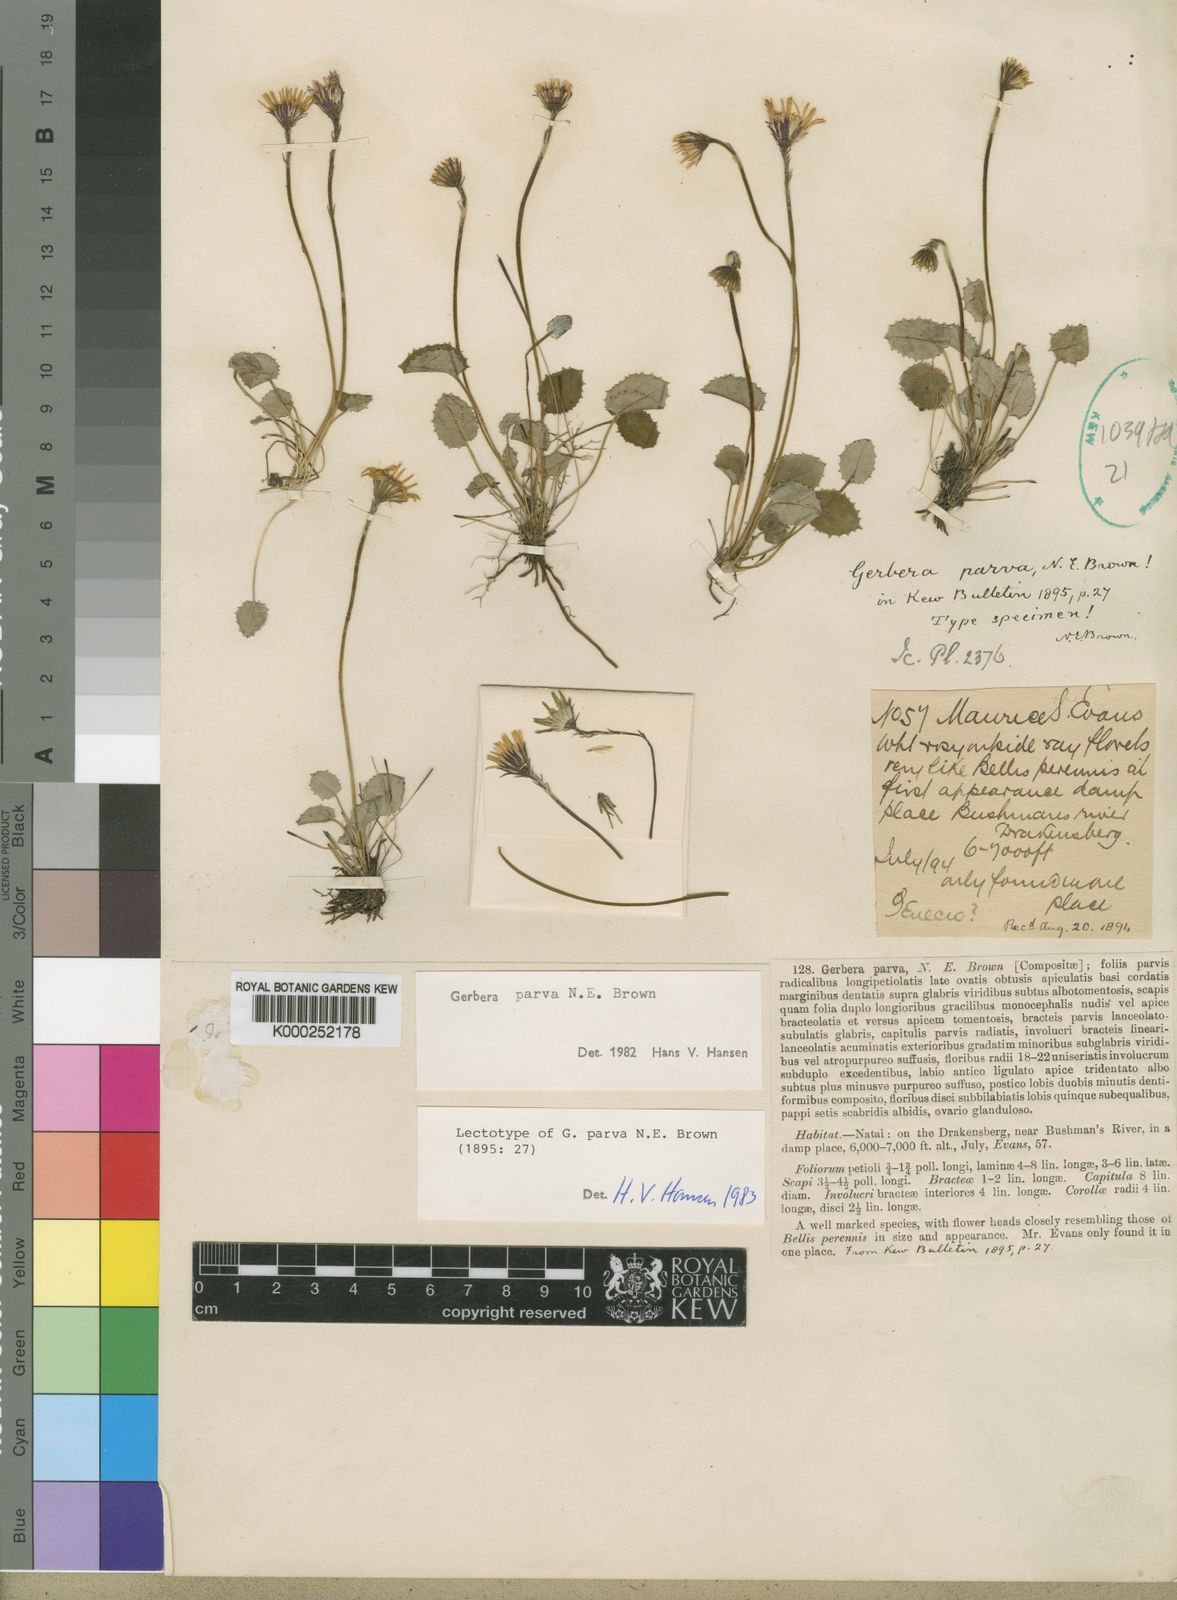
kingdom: Plantae
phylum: Tracheophyta
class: Magnoliopsida
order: Asterales
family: Asteraceae
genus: Gerbera
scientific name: Gerbera parva
